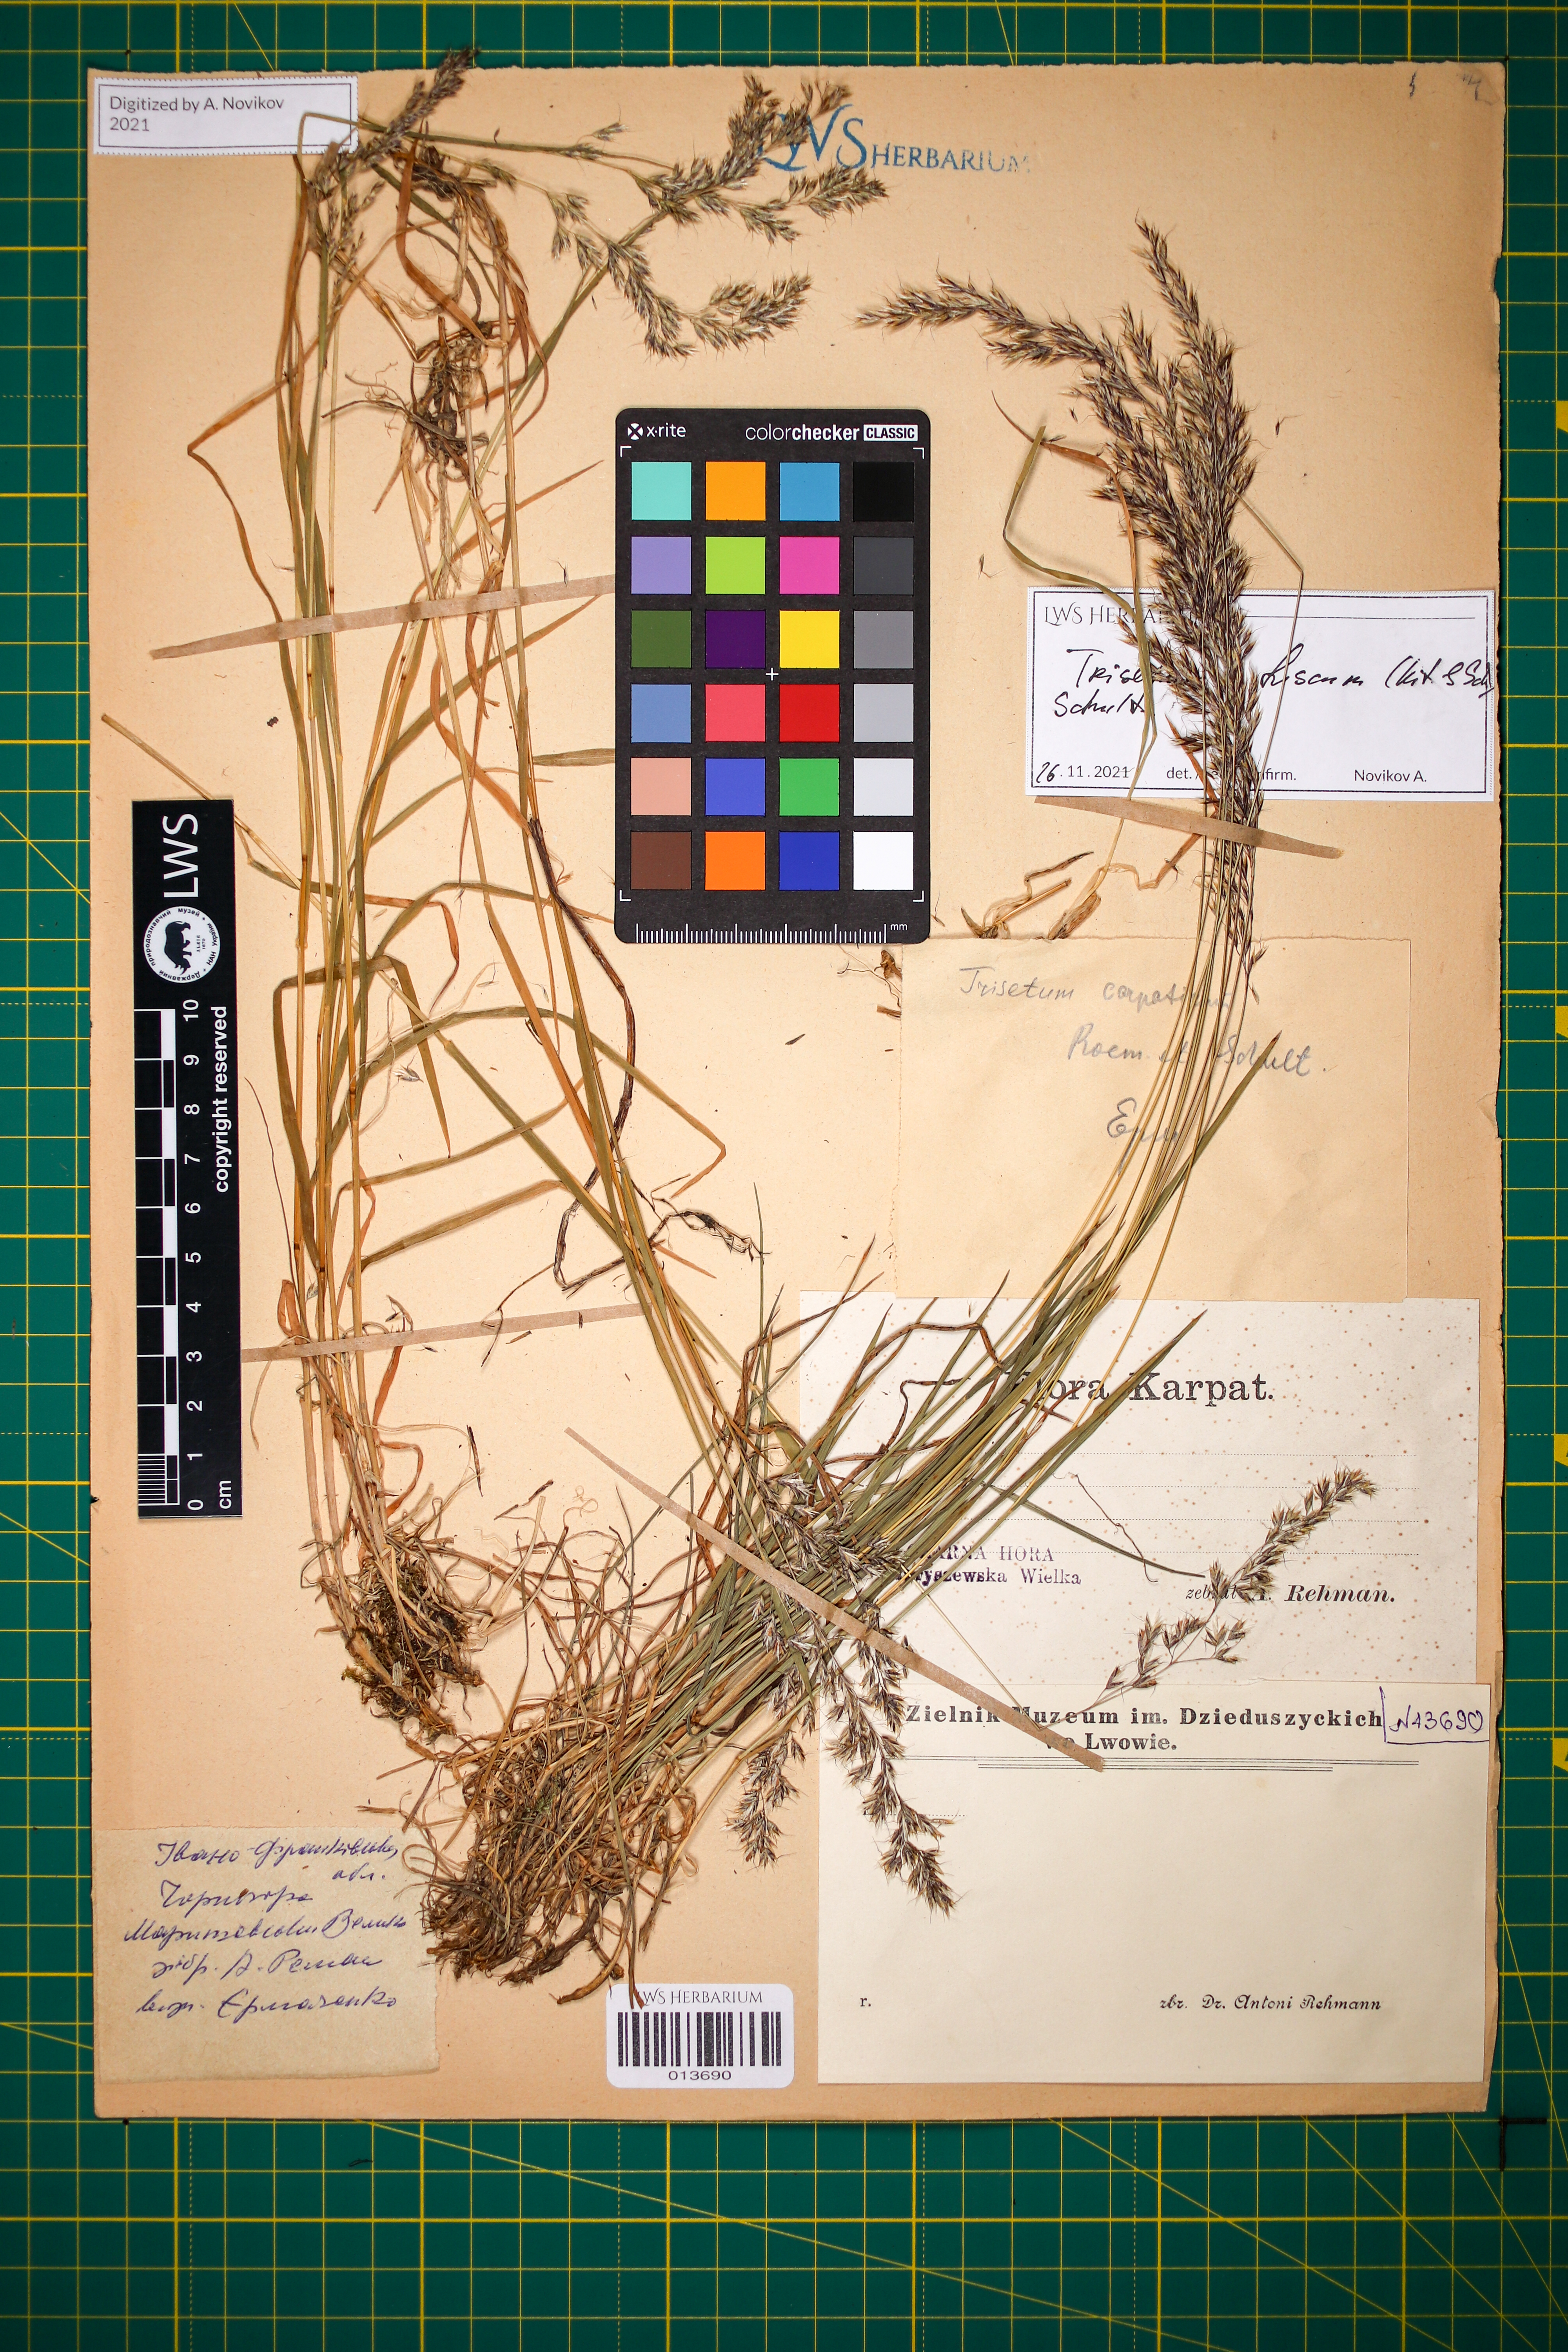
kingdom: Plantae
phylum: Tracheophyta
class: Liliopsida
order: Poales
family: Poaceae
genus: Trisetum
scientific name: Trisetum fuscum
